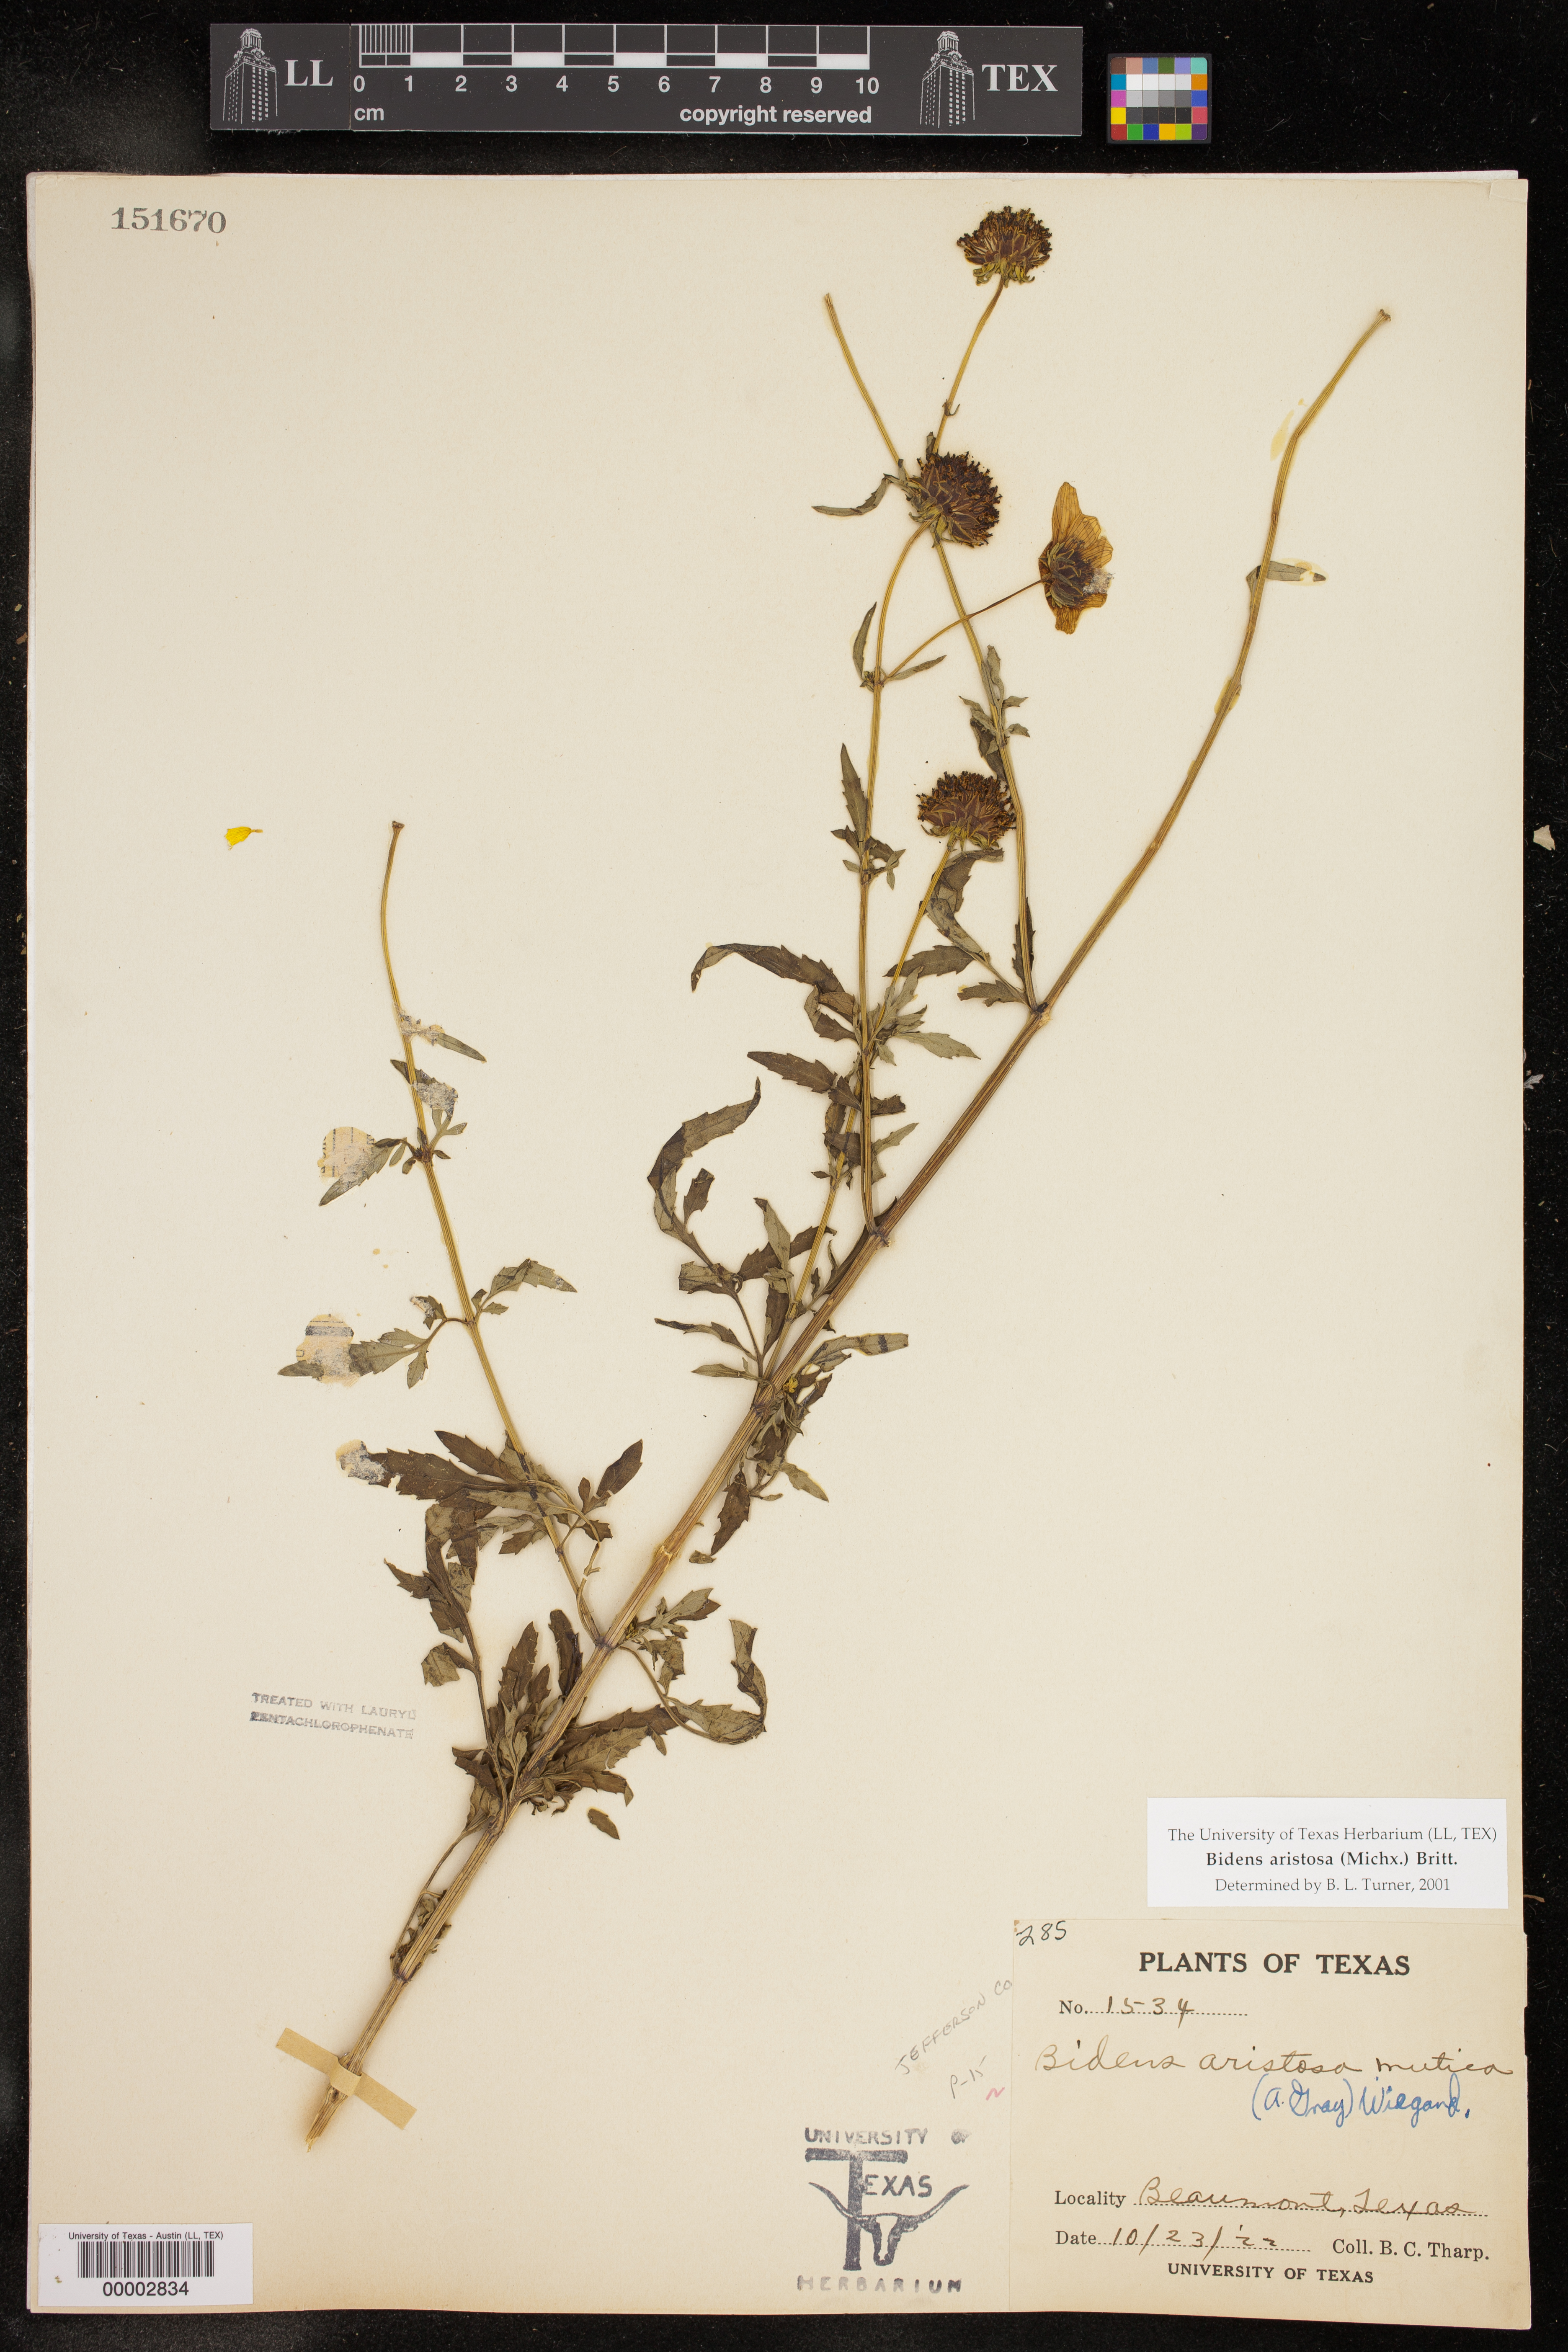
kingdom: Plantae
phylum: Tracheophyta
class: Magnoliopsida
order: Asterales
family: Asteraceae
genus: Bidens
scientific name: Bidens aristosa
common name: Western tickseed
